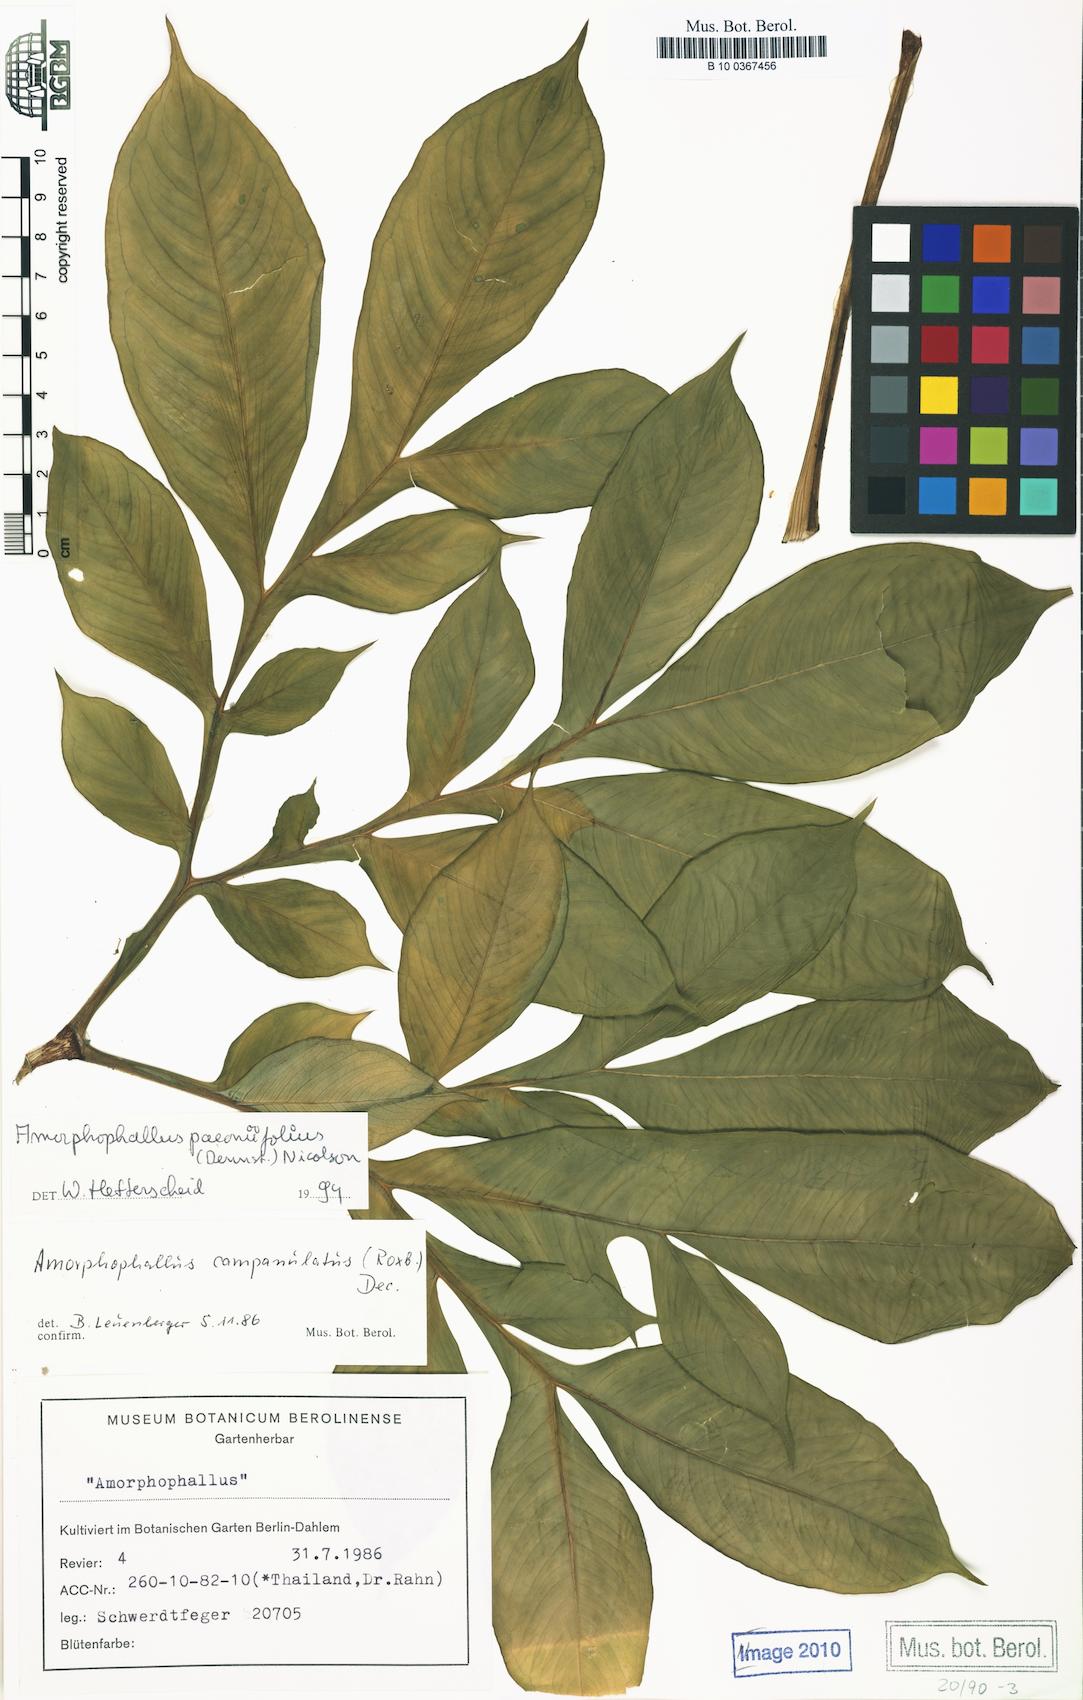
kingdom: Plantae
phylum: Tracheophyta
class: Liliopsida
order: Alismatales
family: Araceae
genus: Amorphophallus
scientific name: Amorphophallus paeoniifolius
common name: Telinga-potato
